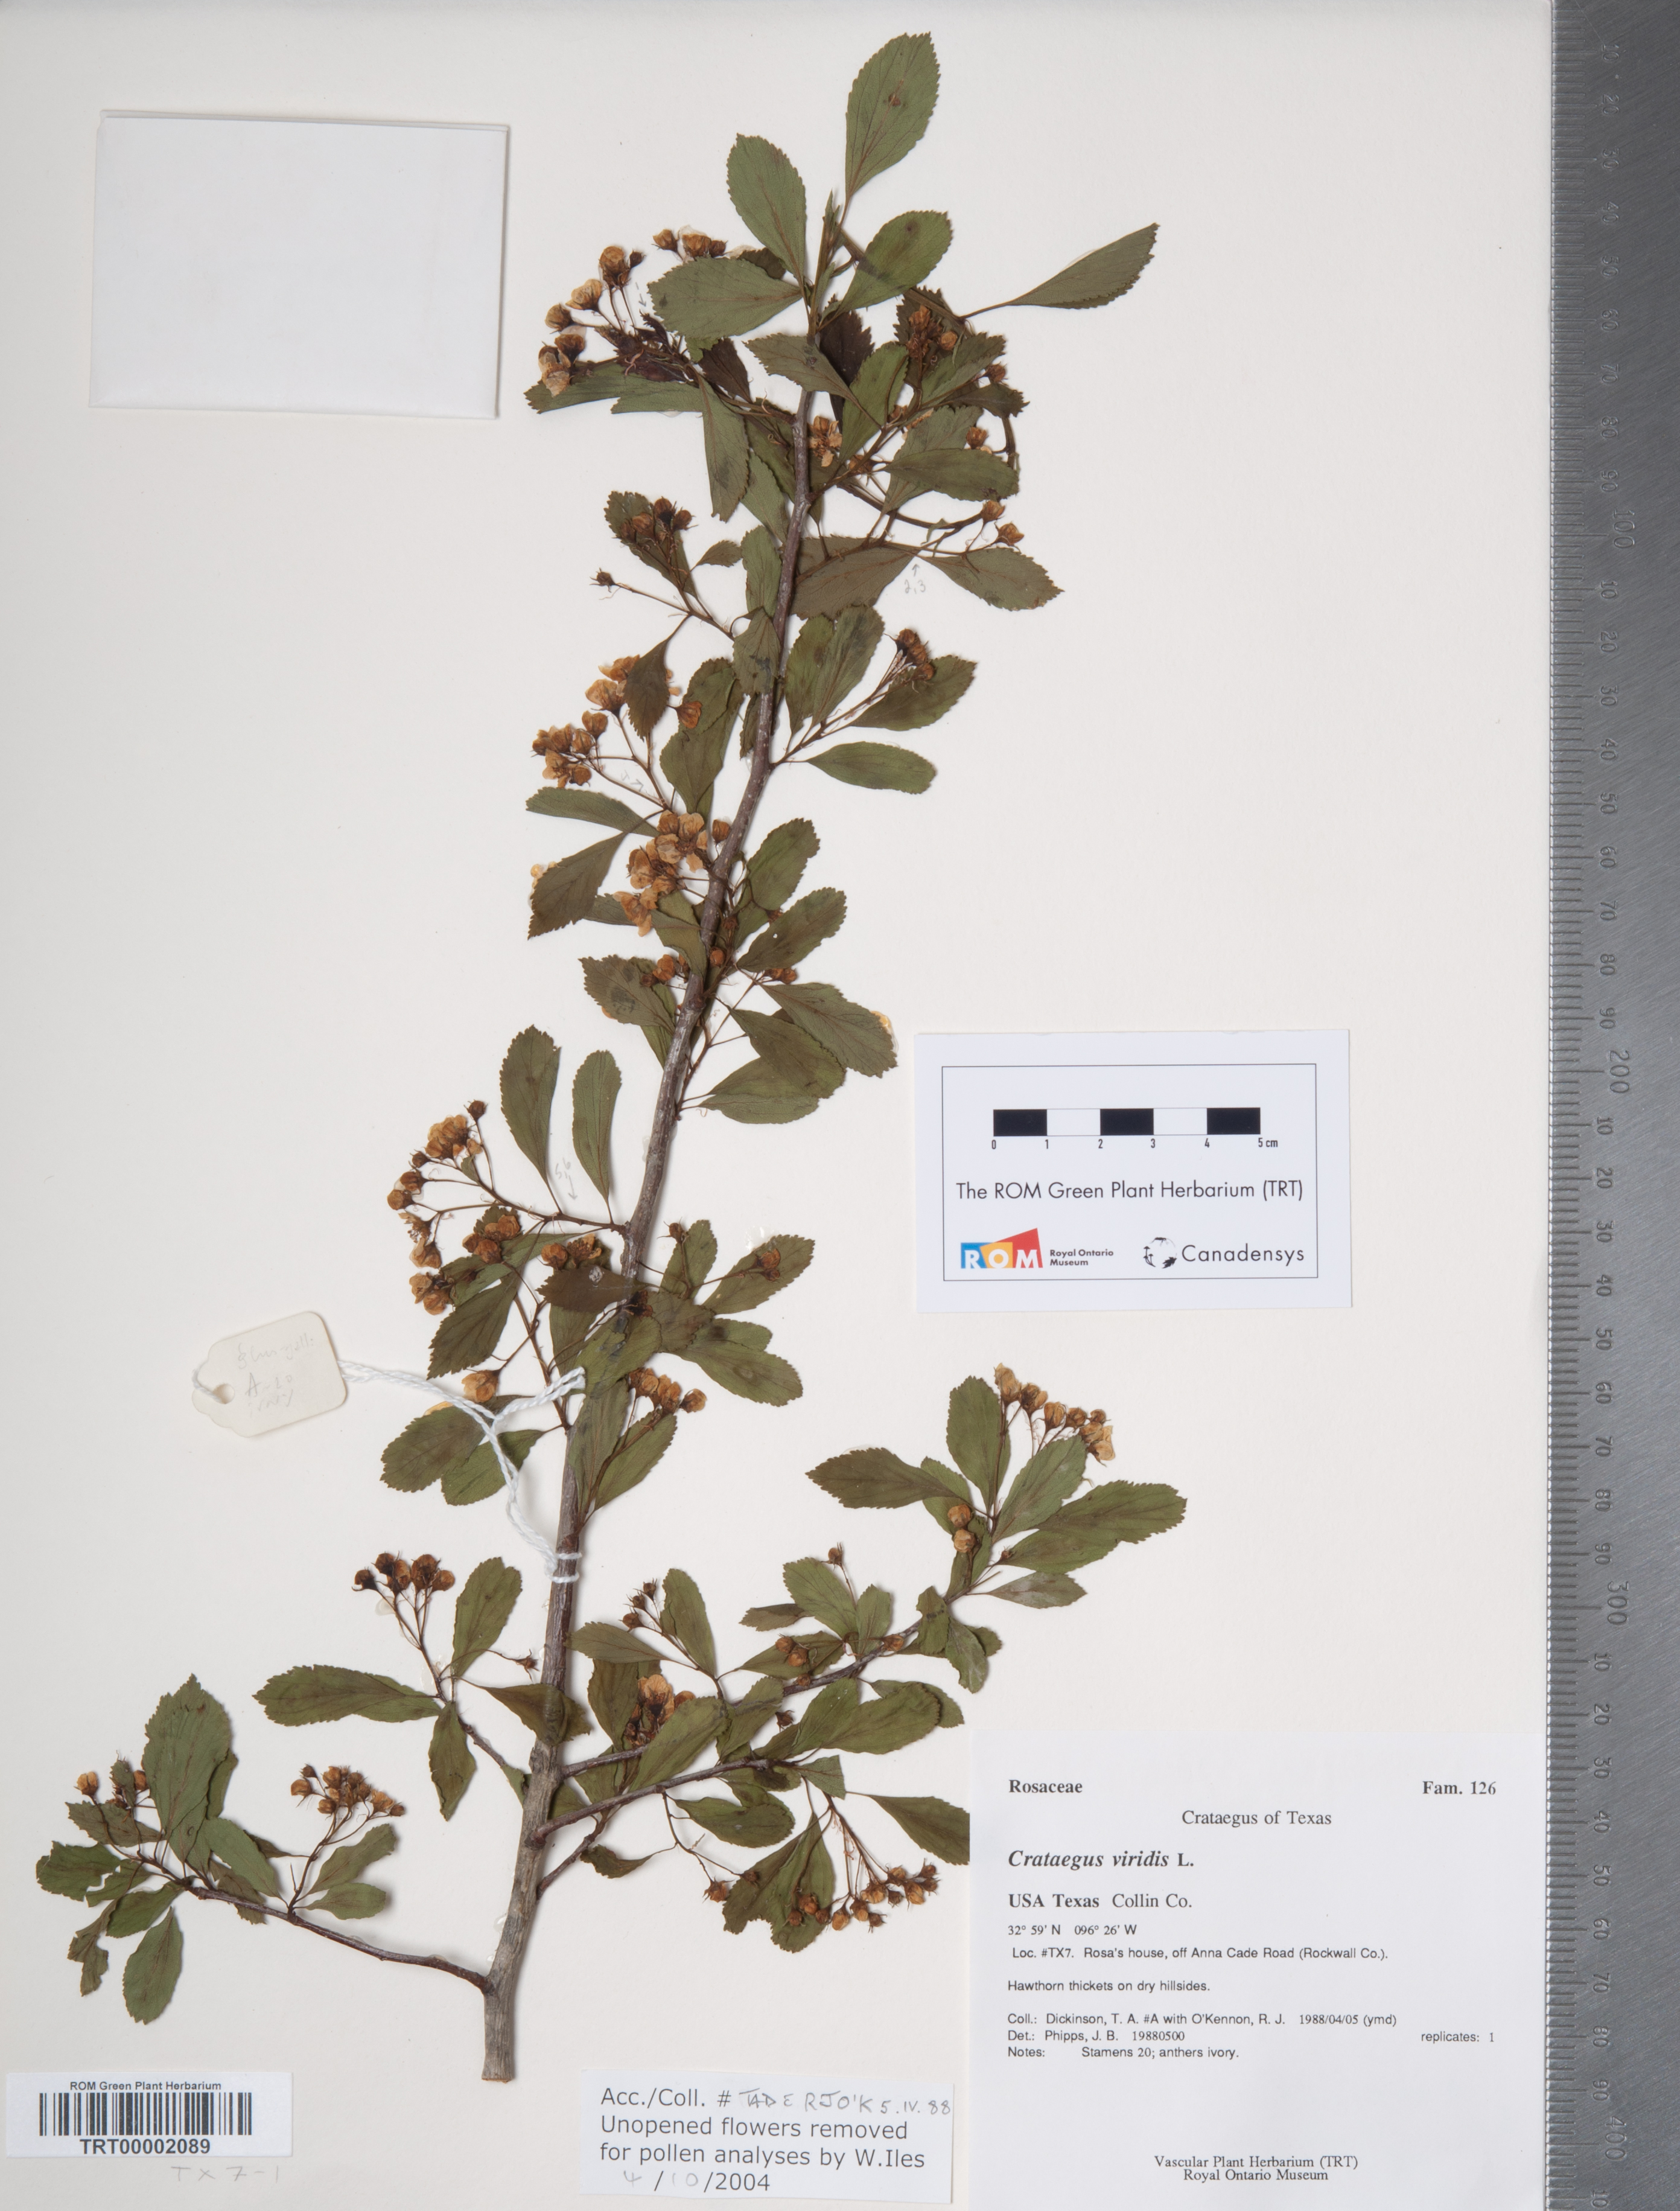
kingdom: Plantae
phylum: Tracheophyta
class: Magnoliopsida
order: Rosales
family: Rosaceae
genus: Crataegus
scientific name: Crataegus viridis
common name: Southernthorn
